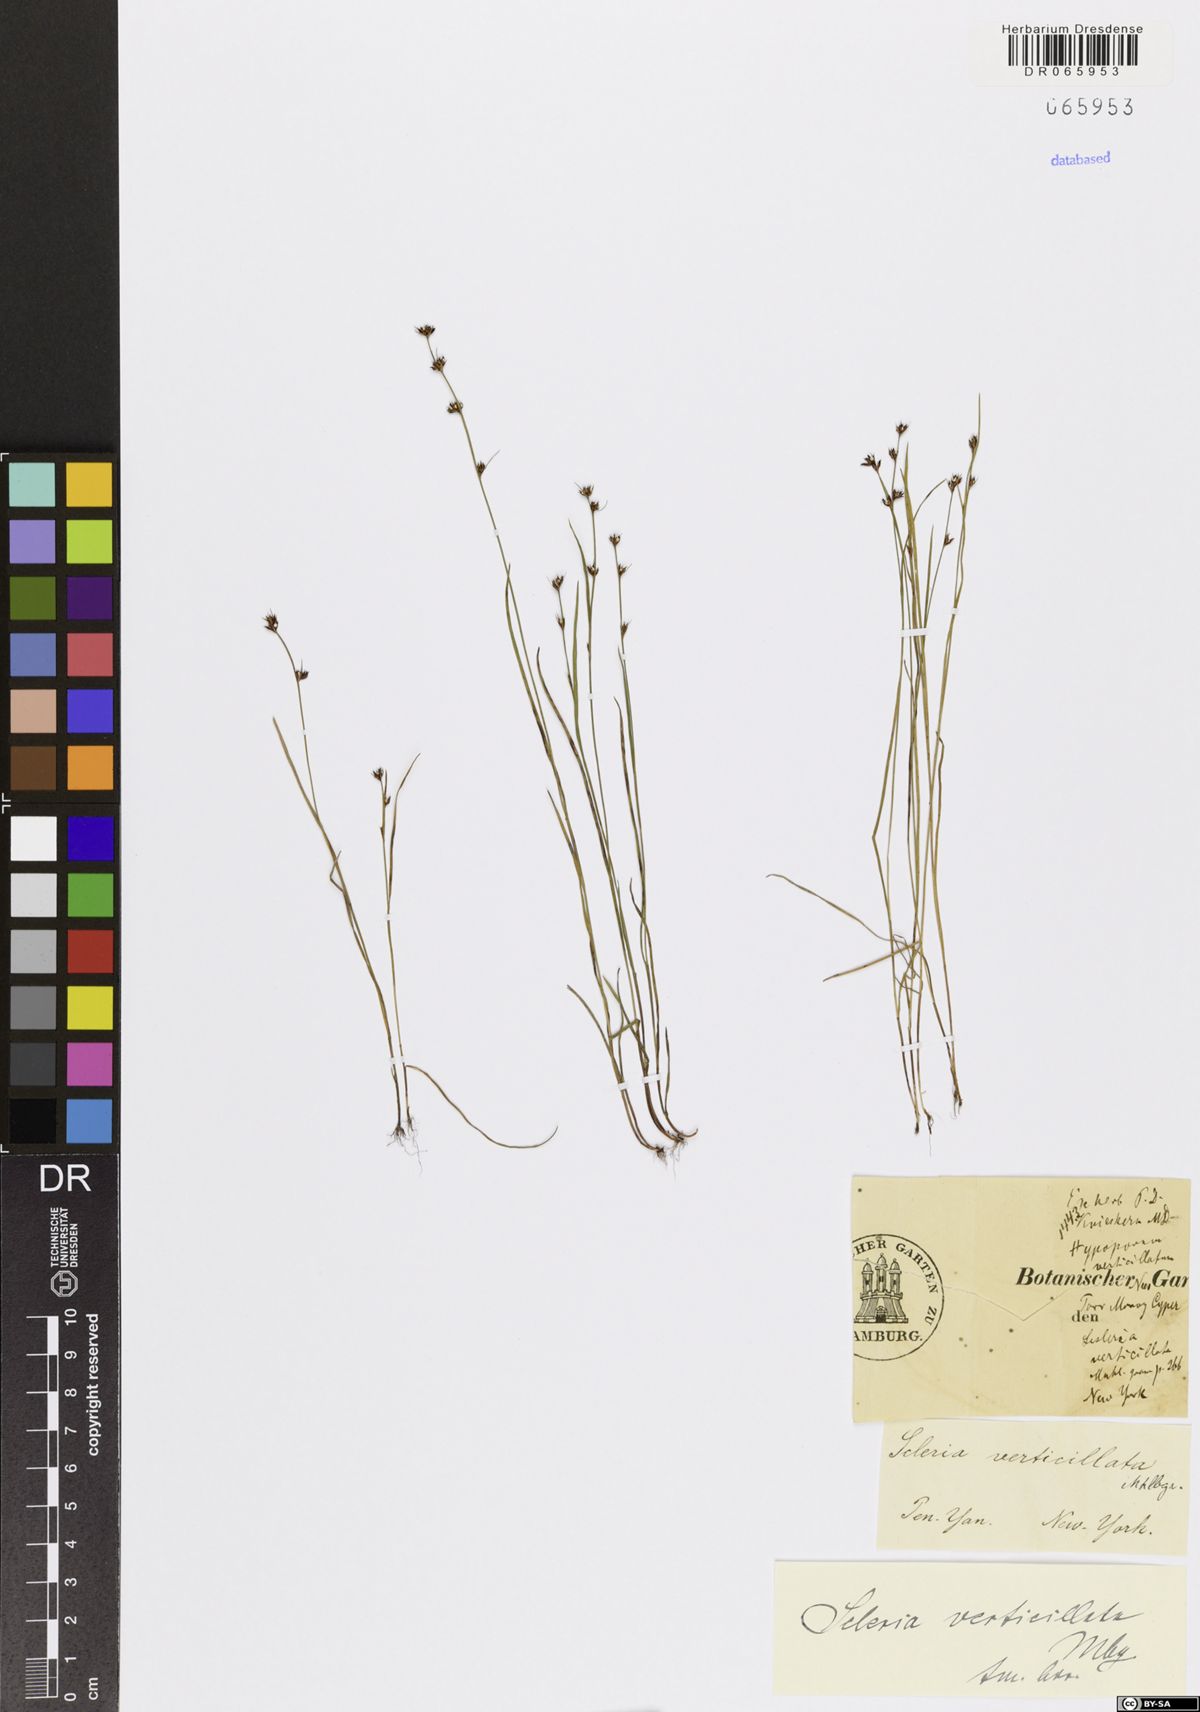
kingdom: Plantae
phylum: Tracheophyta
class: Liliopsida
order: Poales
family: Cyperaceae
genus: Scleria
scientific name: Scleria verticillata
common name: Low nutrush
